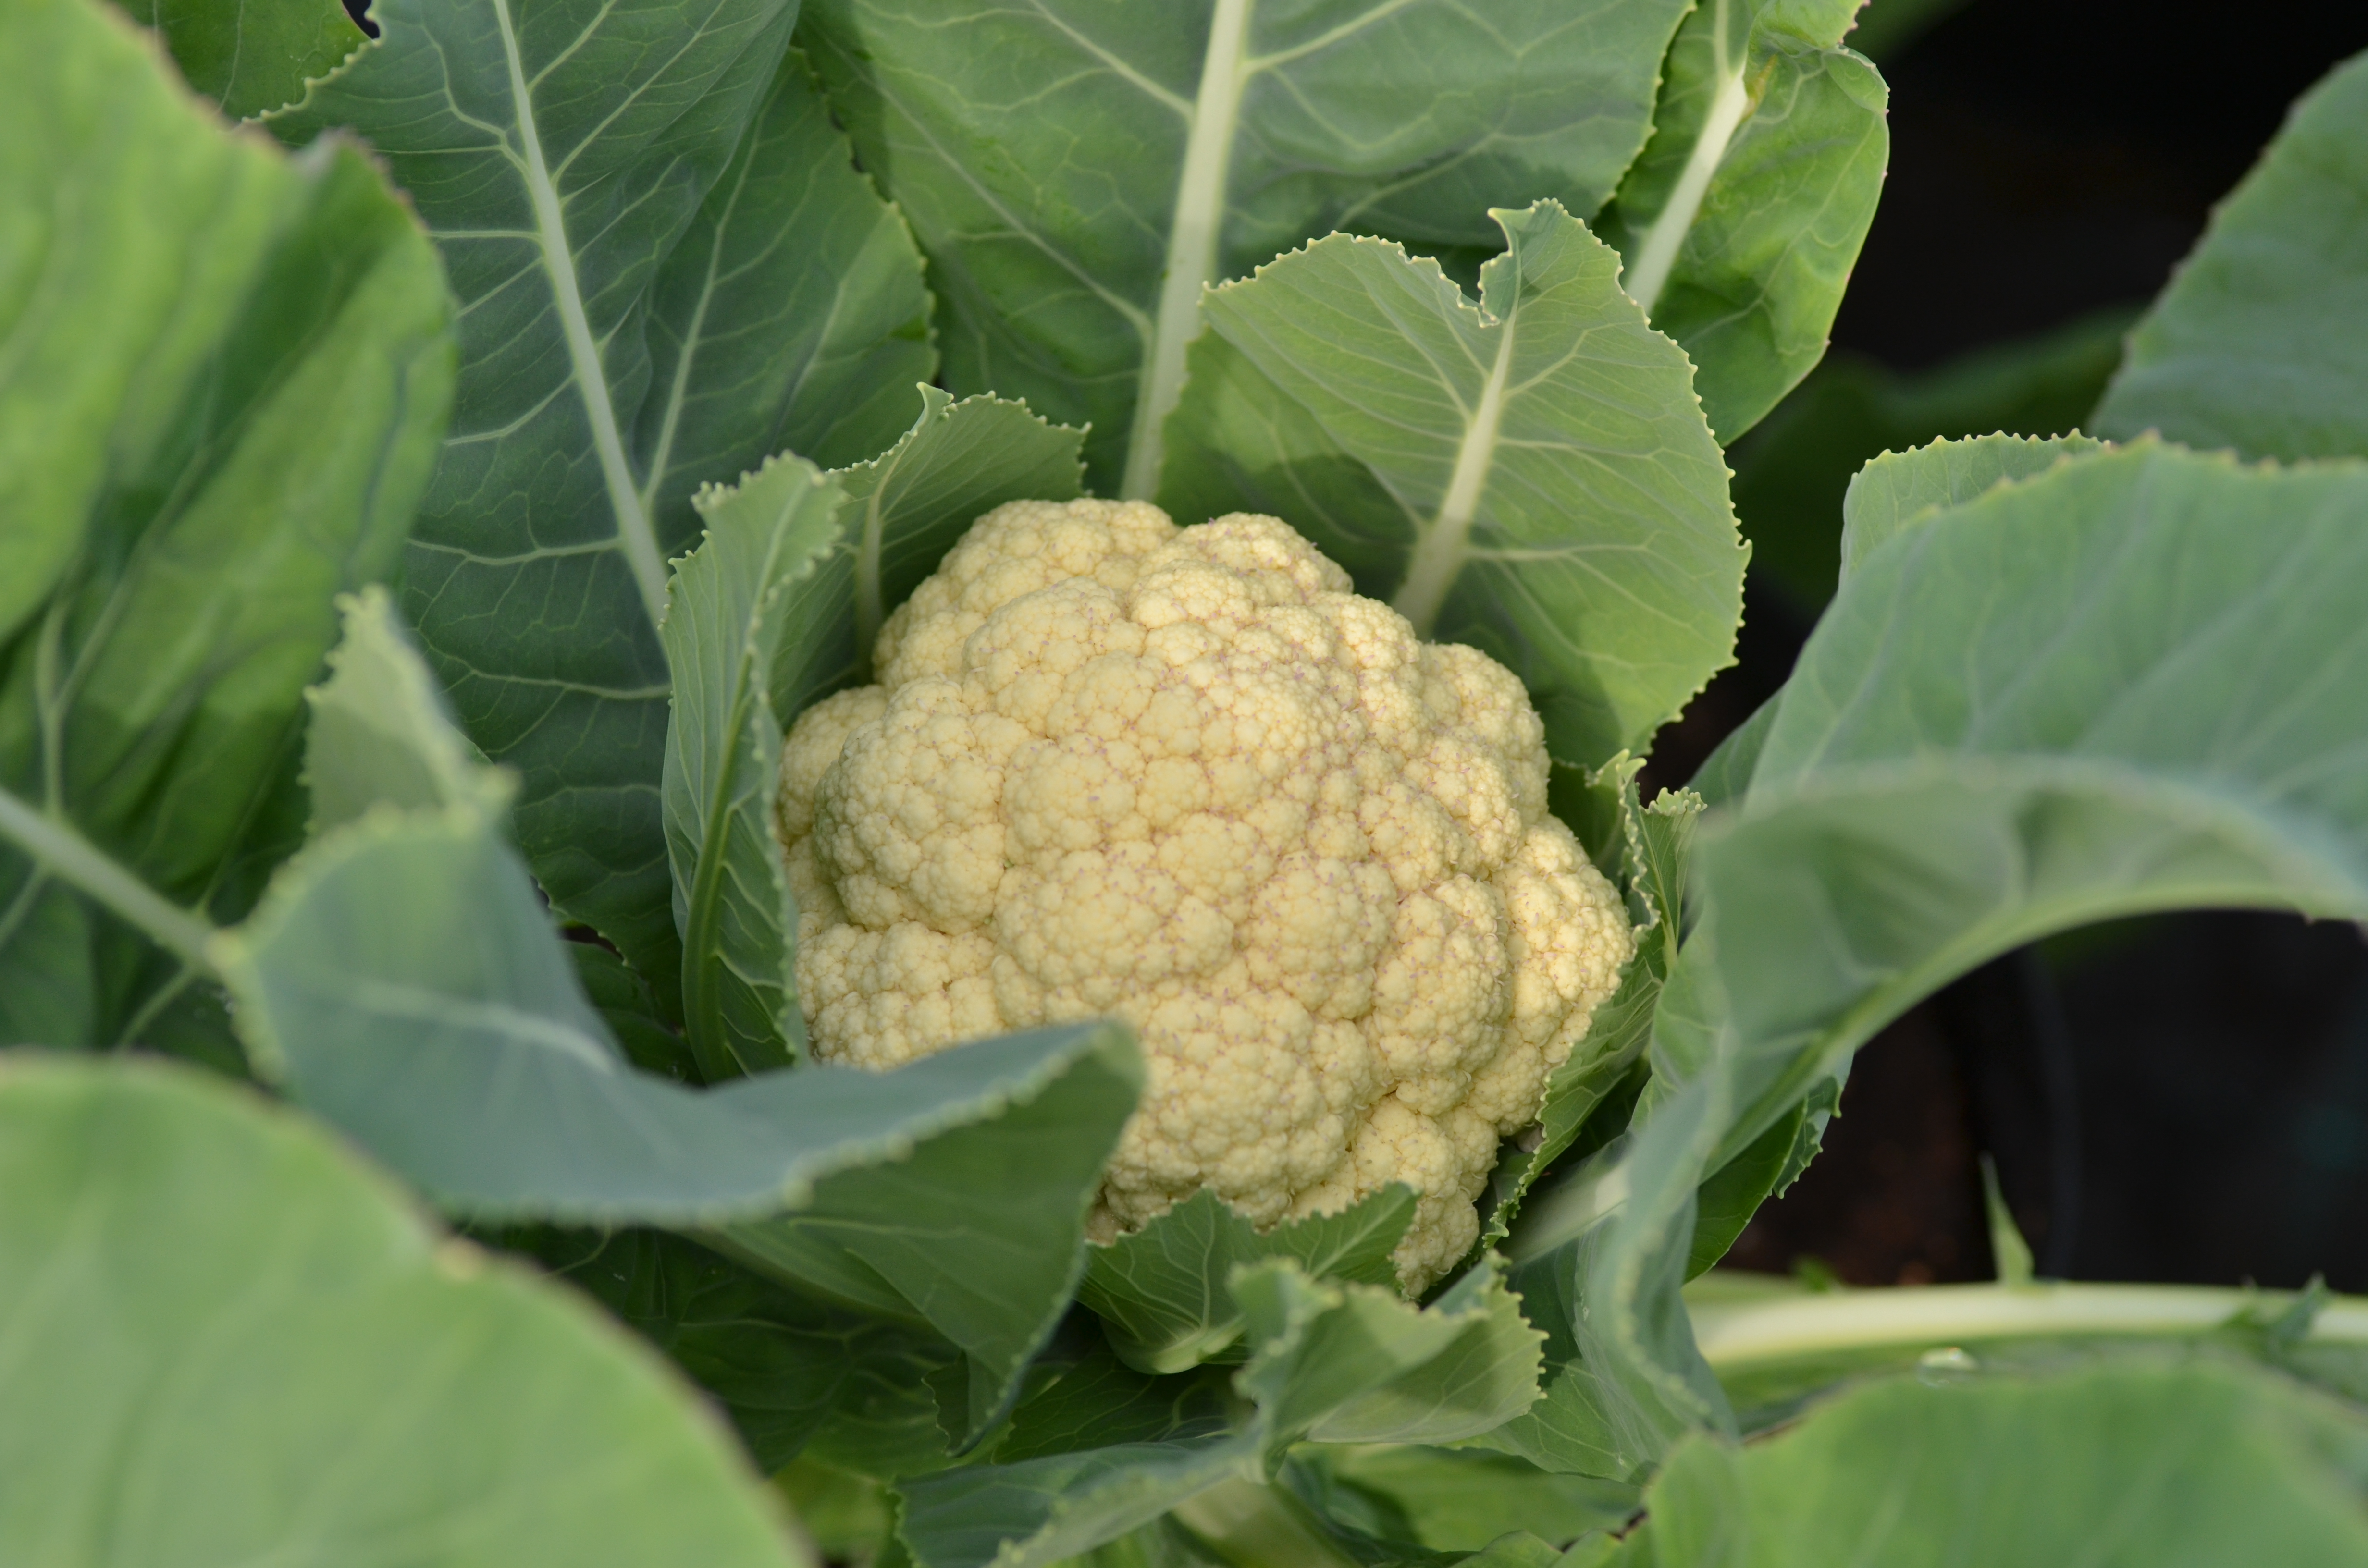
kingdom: Plantae
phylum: Tracheophyta
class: Magnoliopsida
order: Brassicales
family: Brassicaceae
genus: Brassica
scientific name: Brassica oleracea
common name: Cabbage
